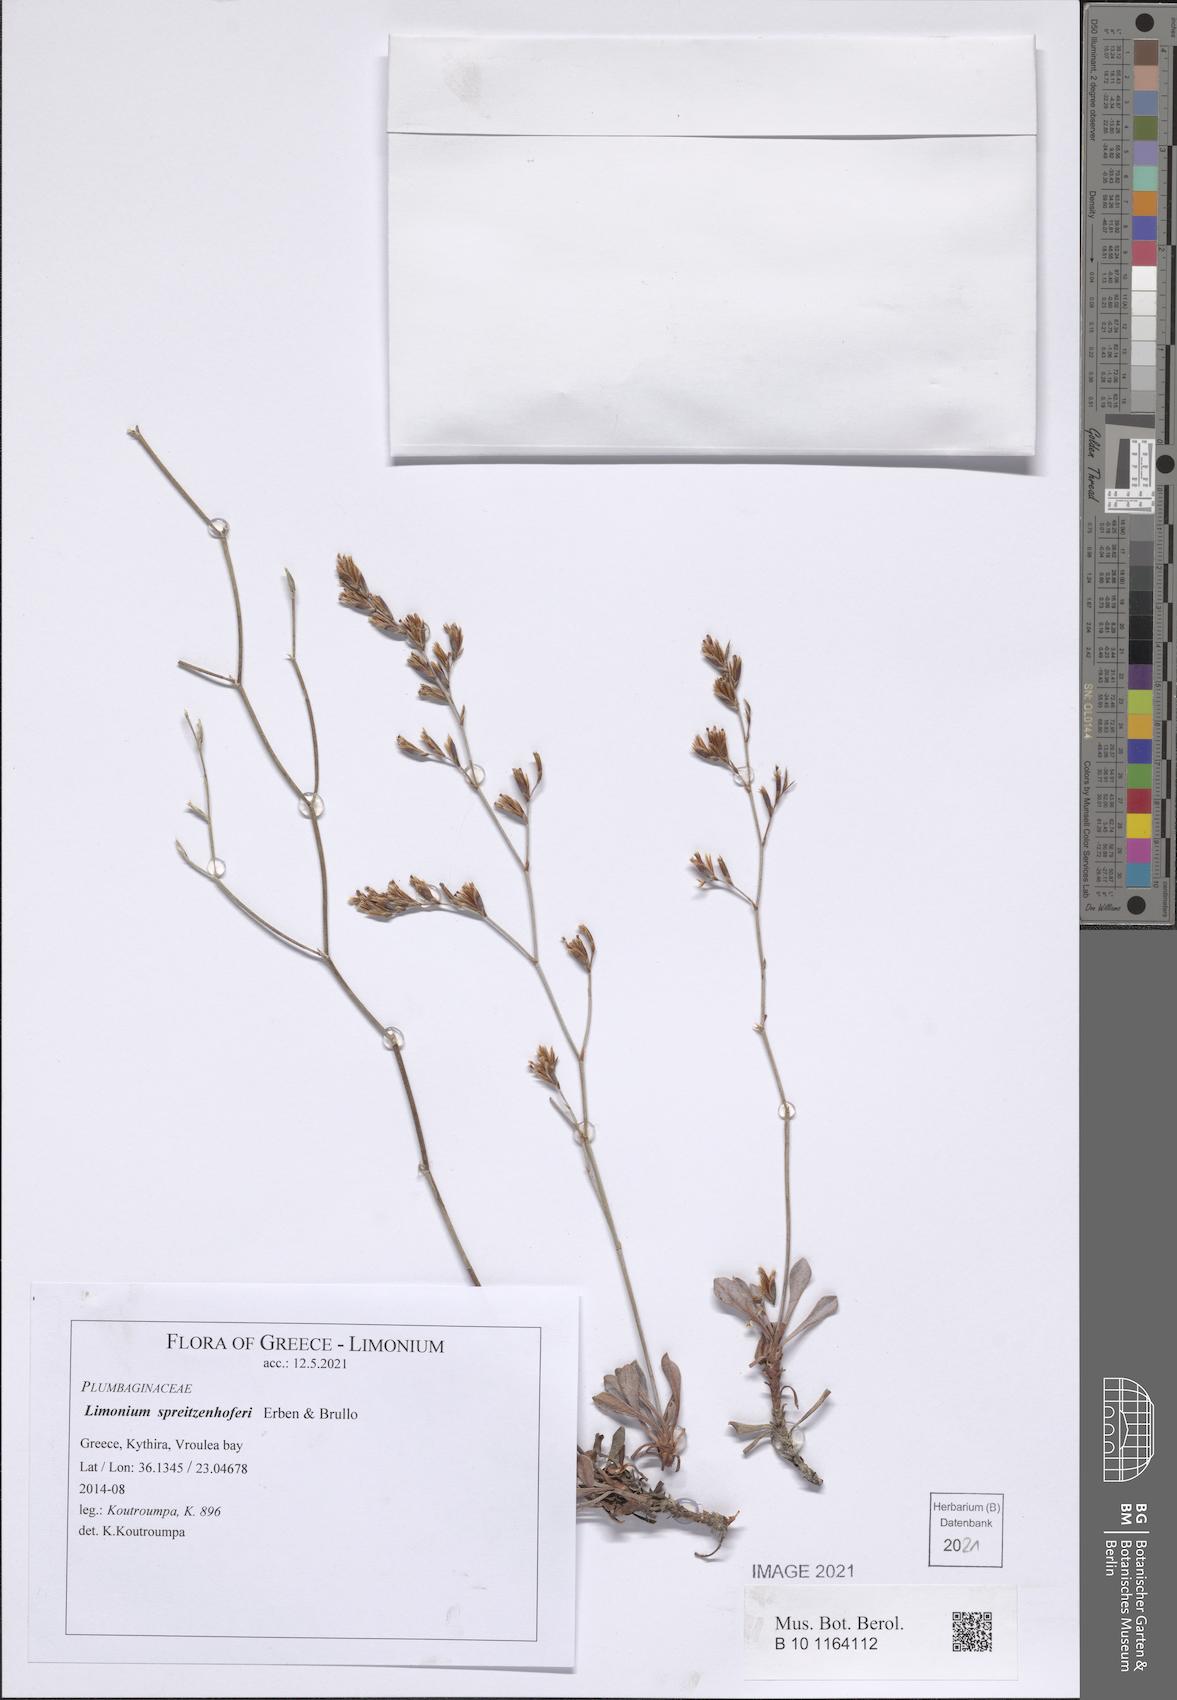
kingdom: Plantae
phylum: Tracheophyta
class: Magnoliopsida
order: Caryophyllales
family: Plumbaginaceae
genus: Limonium
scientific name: Limonium spreitzenhoferi
